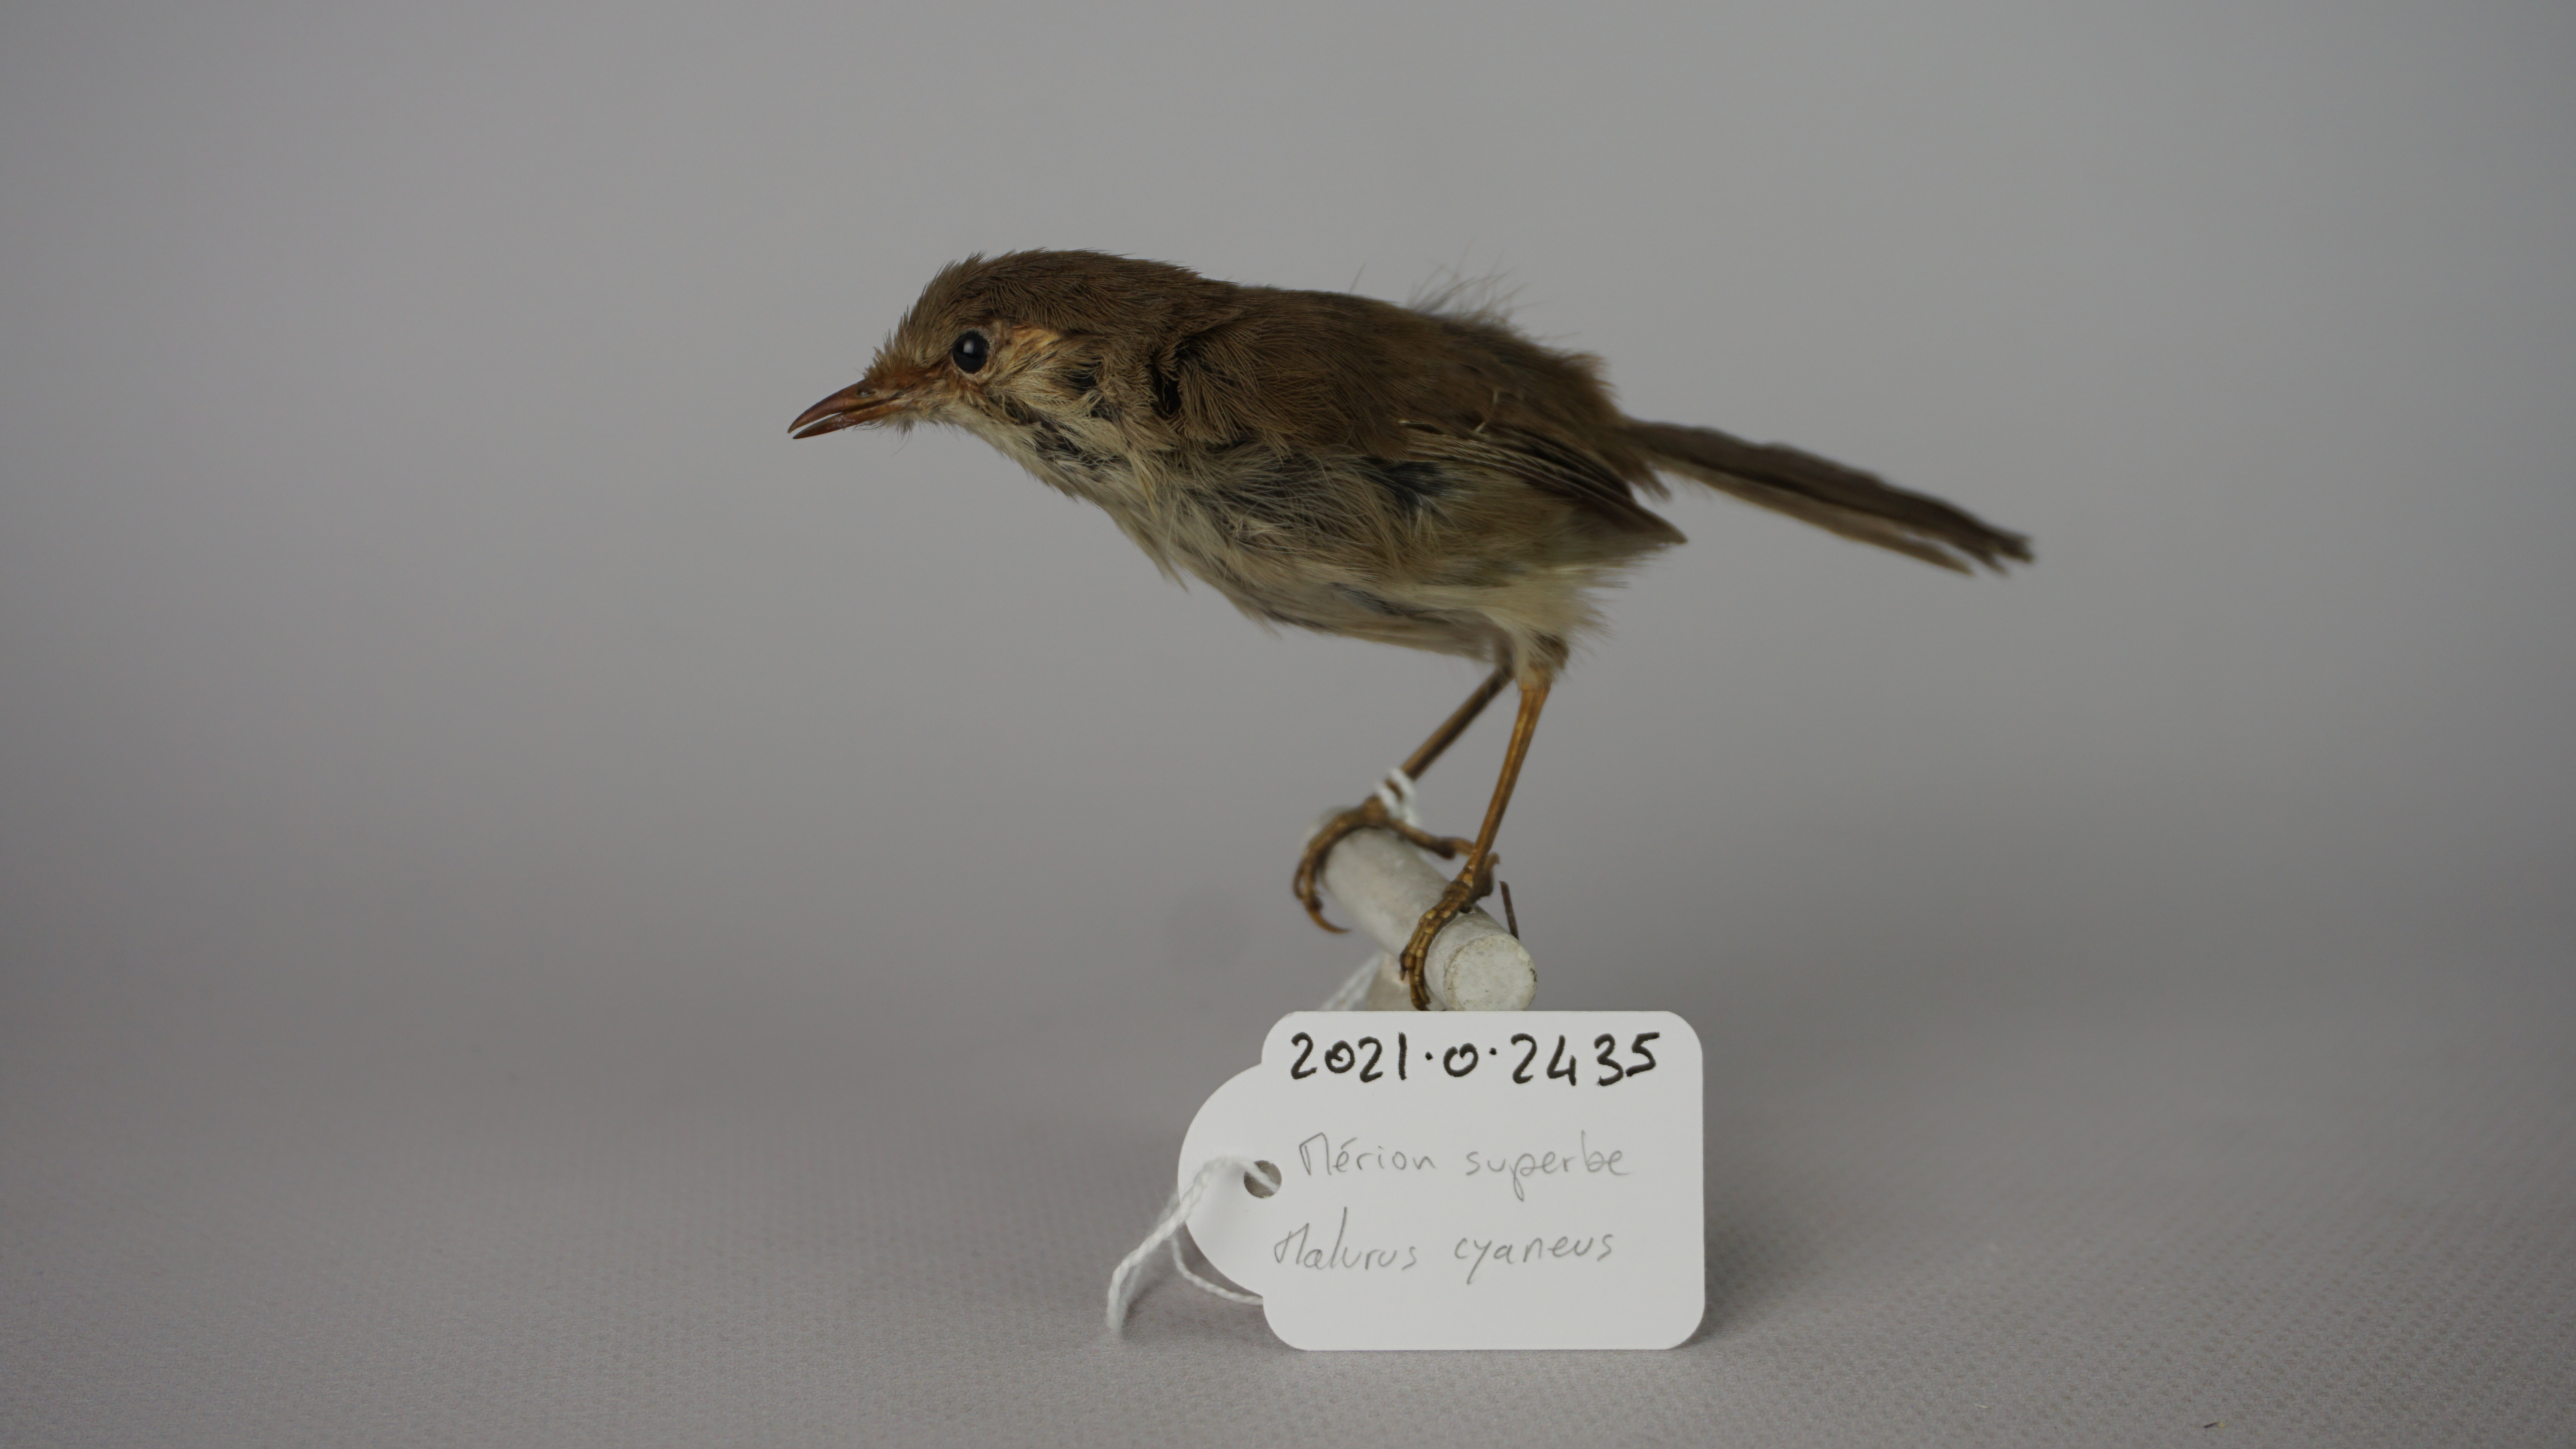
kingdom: Animalia
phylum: Chordata
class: Aves
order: Passeriformes
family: Maluridae
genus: Malurus
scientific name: Malurus cyaneus
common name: Superb fairywren
